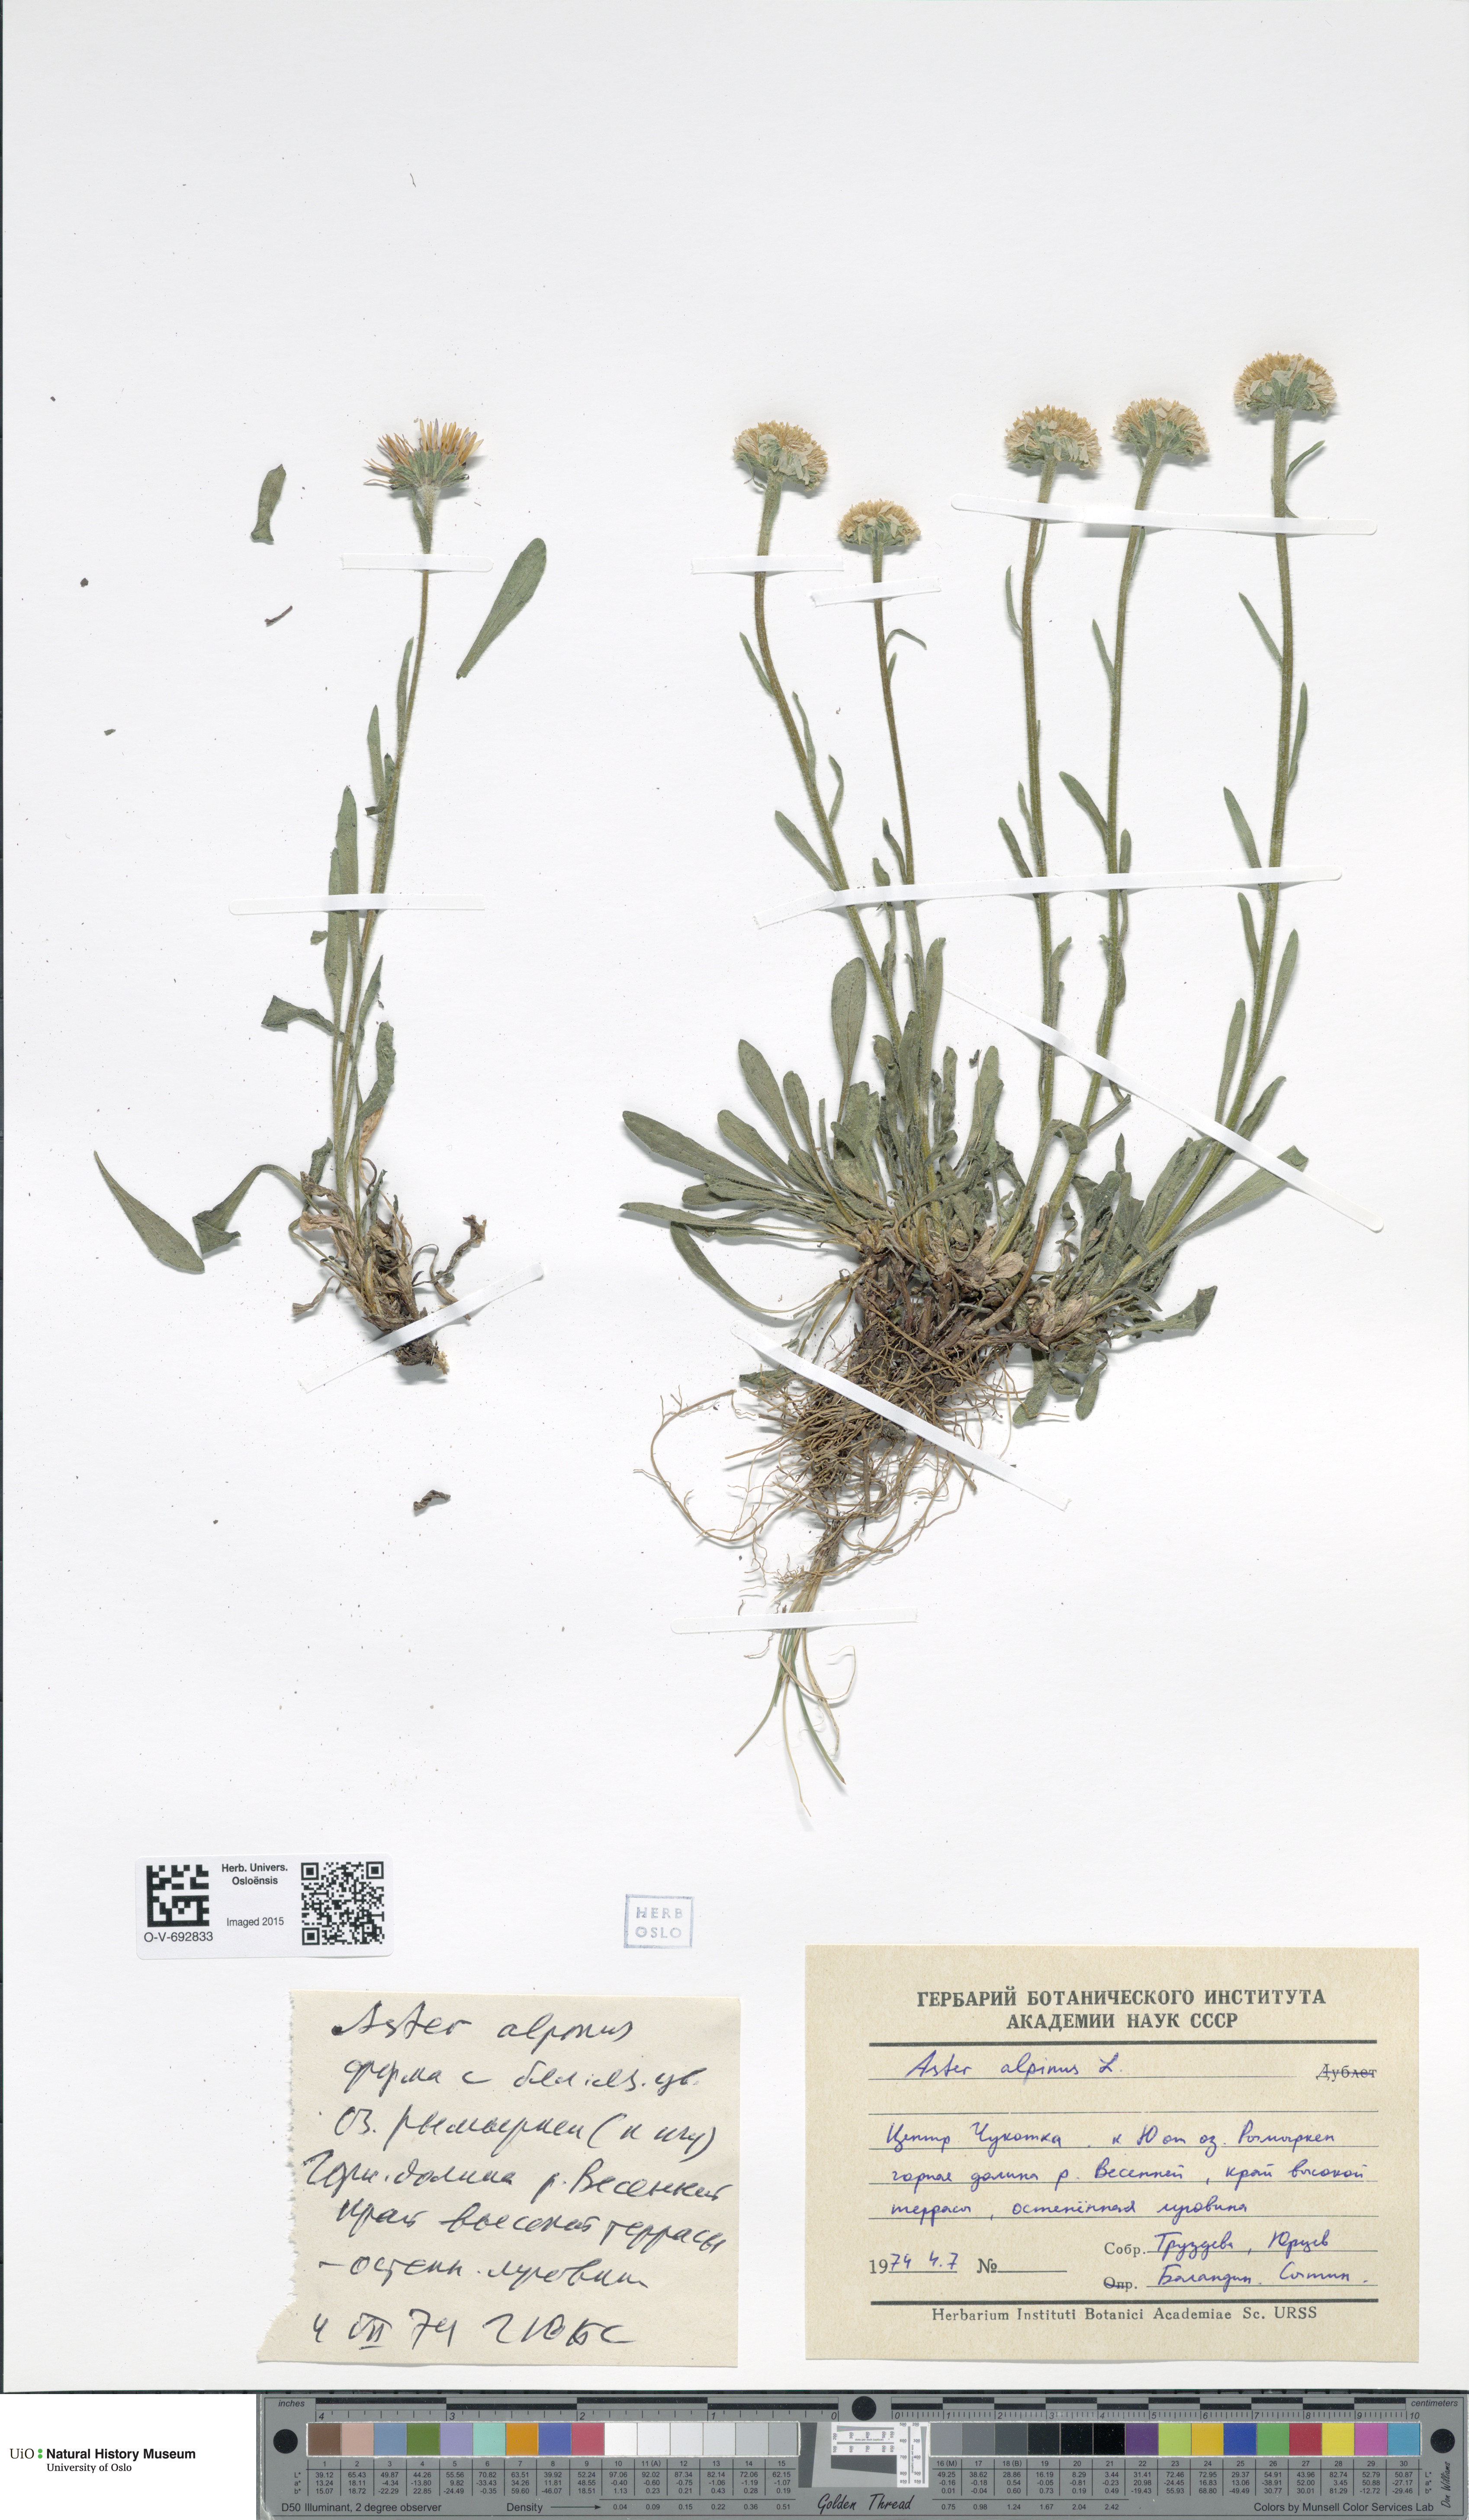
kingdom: Plantae
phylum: Tracheophyta
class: Magnoliopsida
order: Asterales
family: Asteraceae
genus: Aster
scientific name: Aster alpinus
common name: Alpine aster
